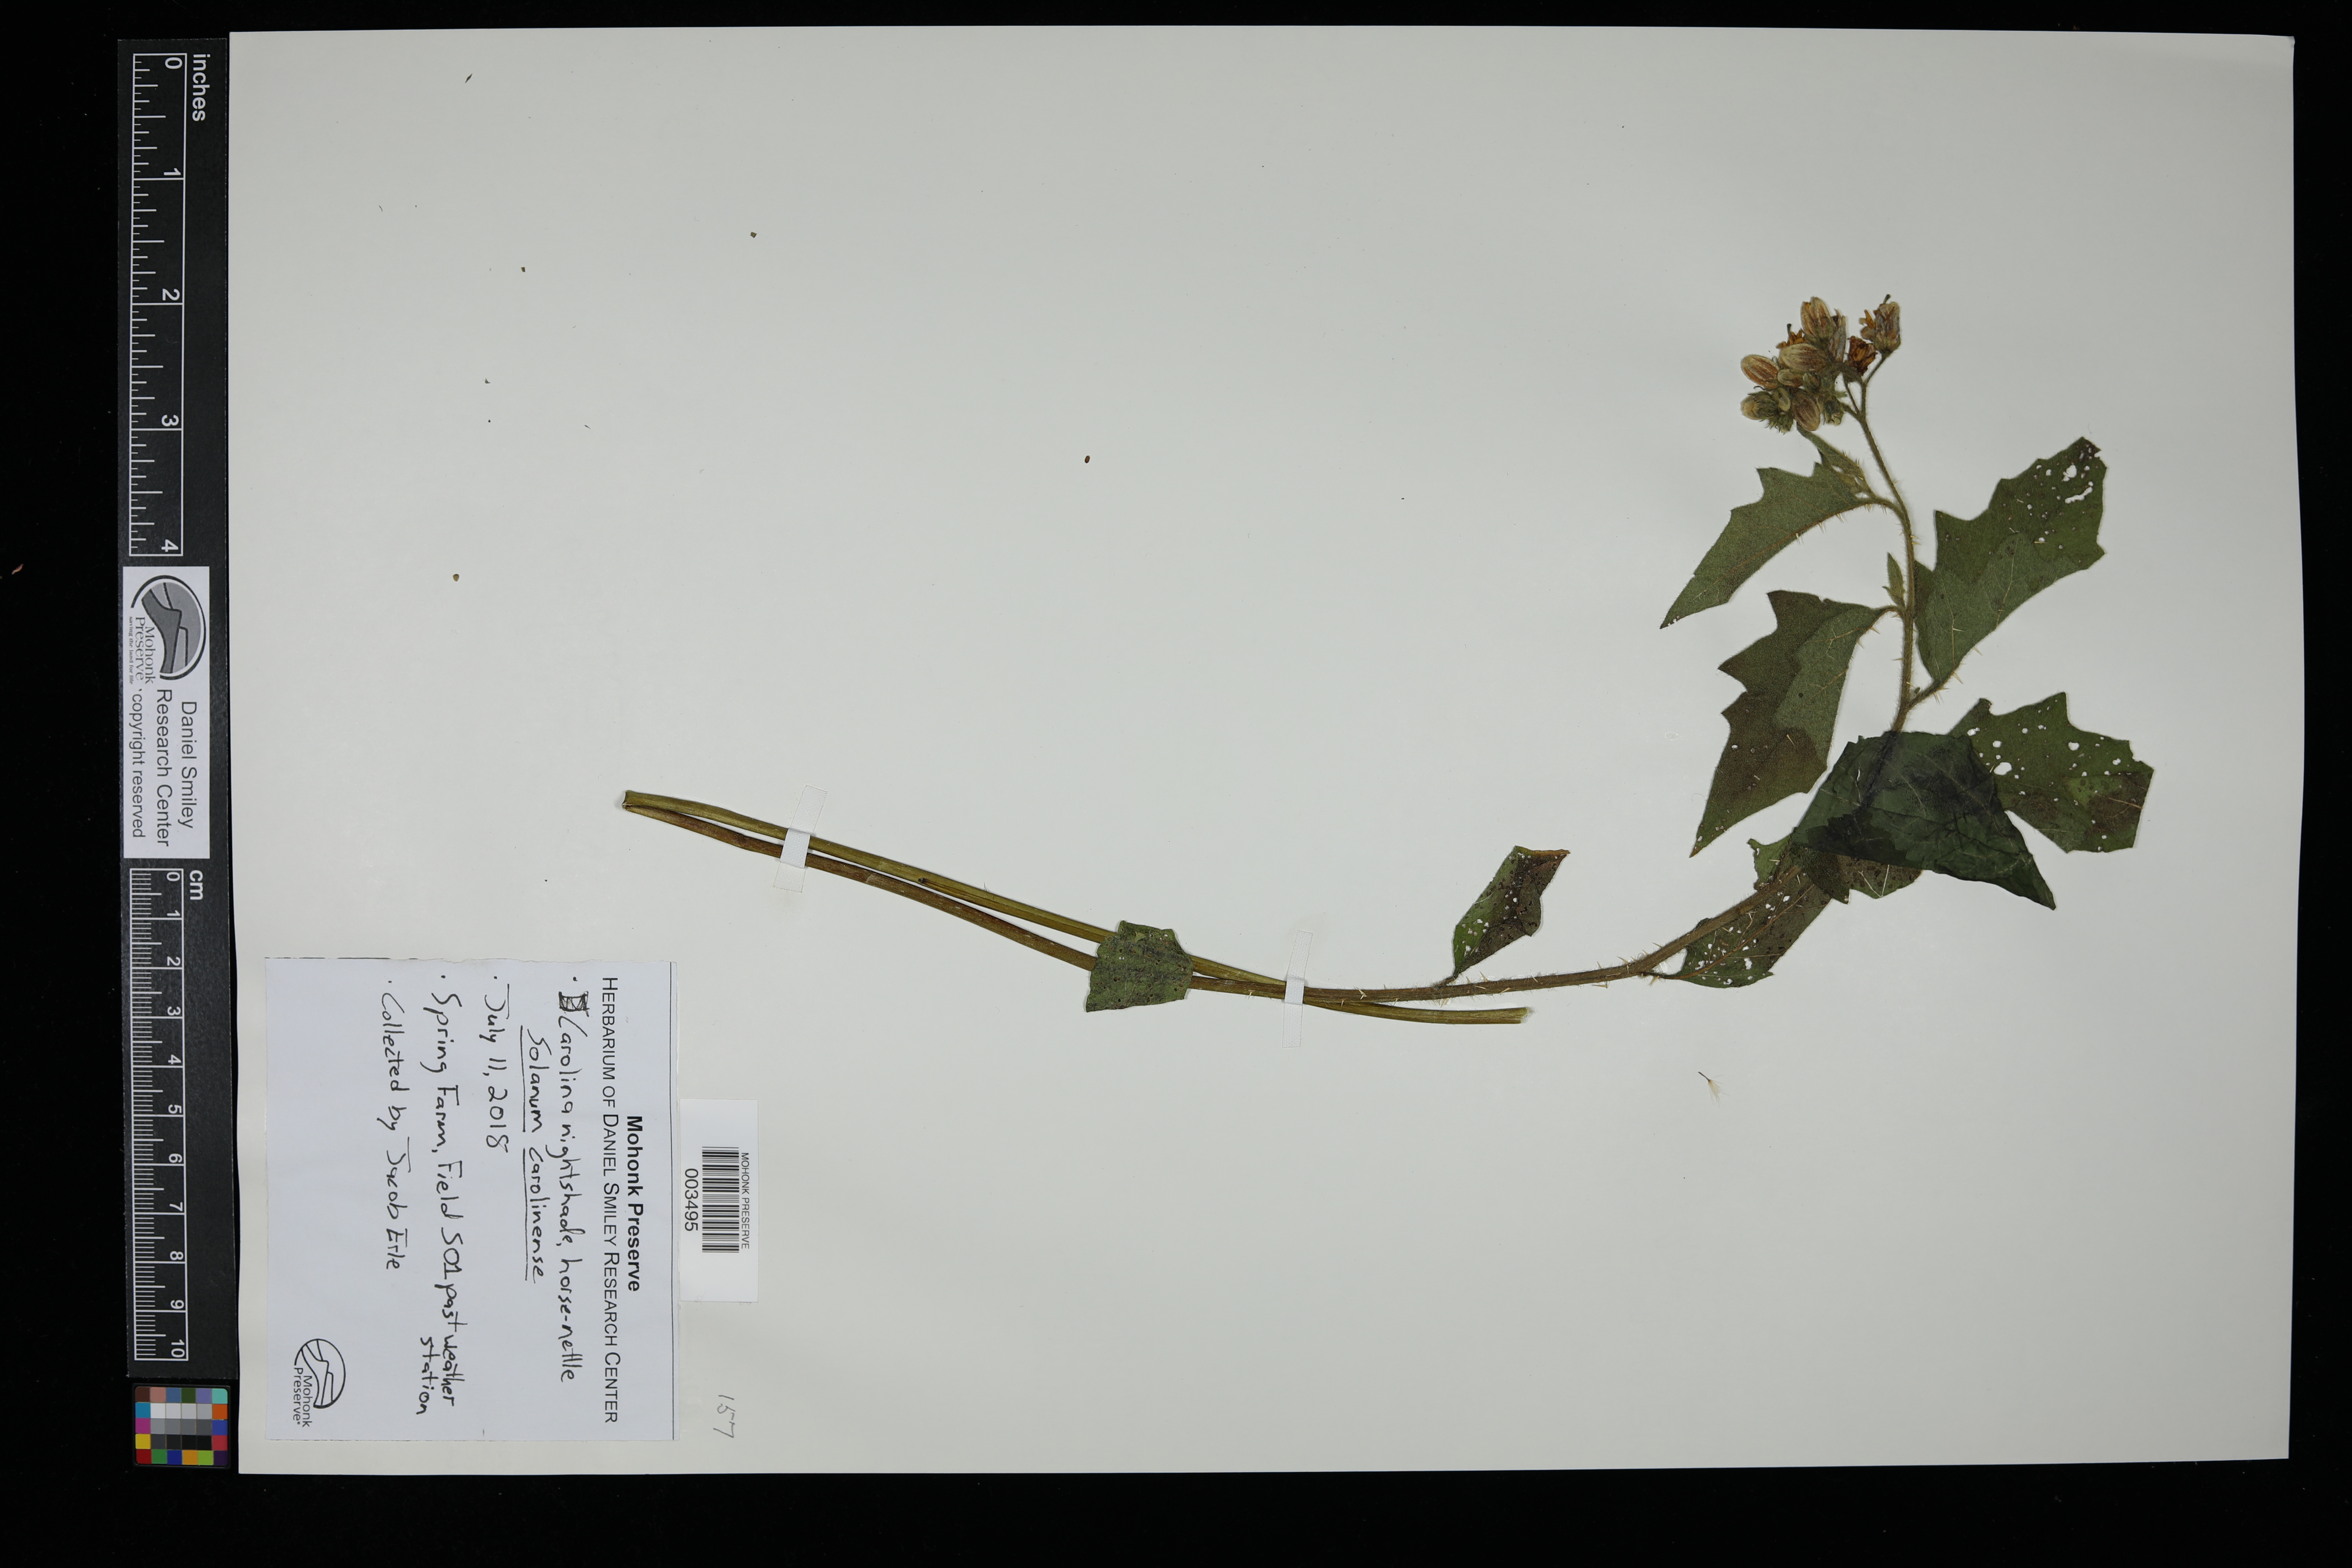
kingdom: Plantae
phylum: Tracheophyta
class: Magnoliopsida
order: Solanales
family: Solanaceae
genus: Solanum
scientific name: Solanum carolinense
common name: Horse-nettle
